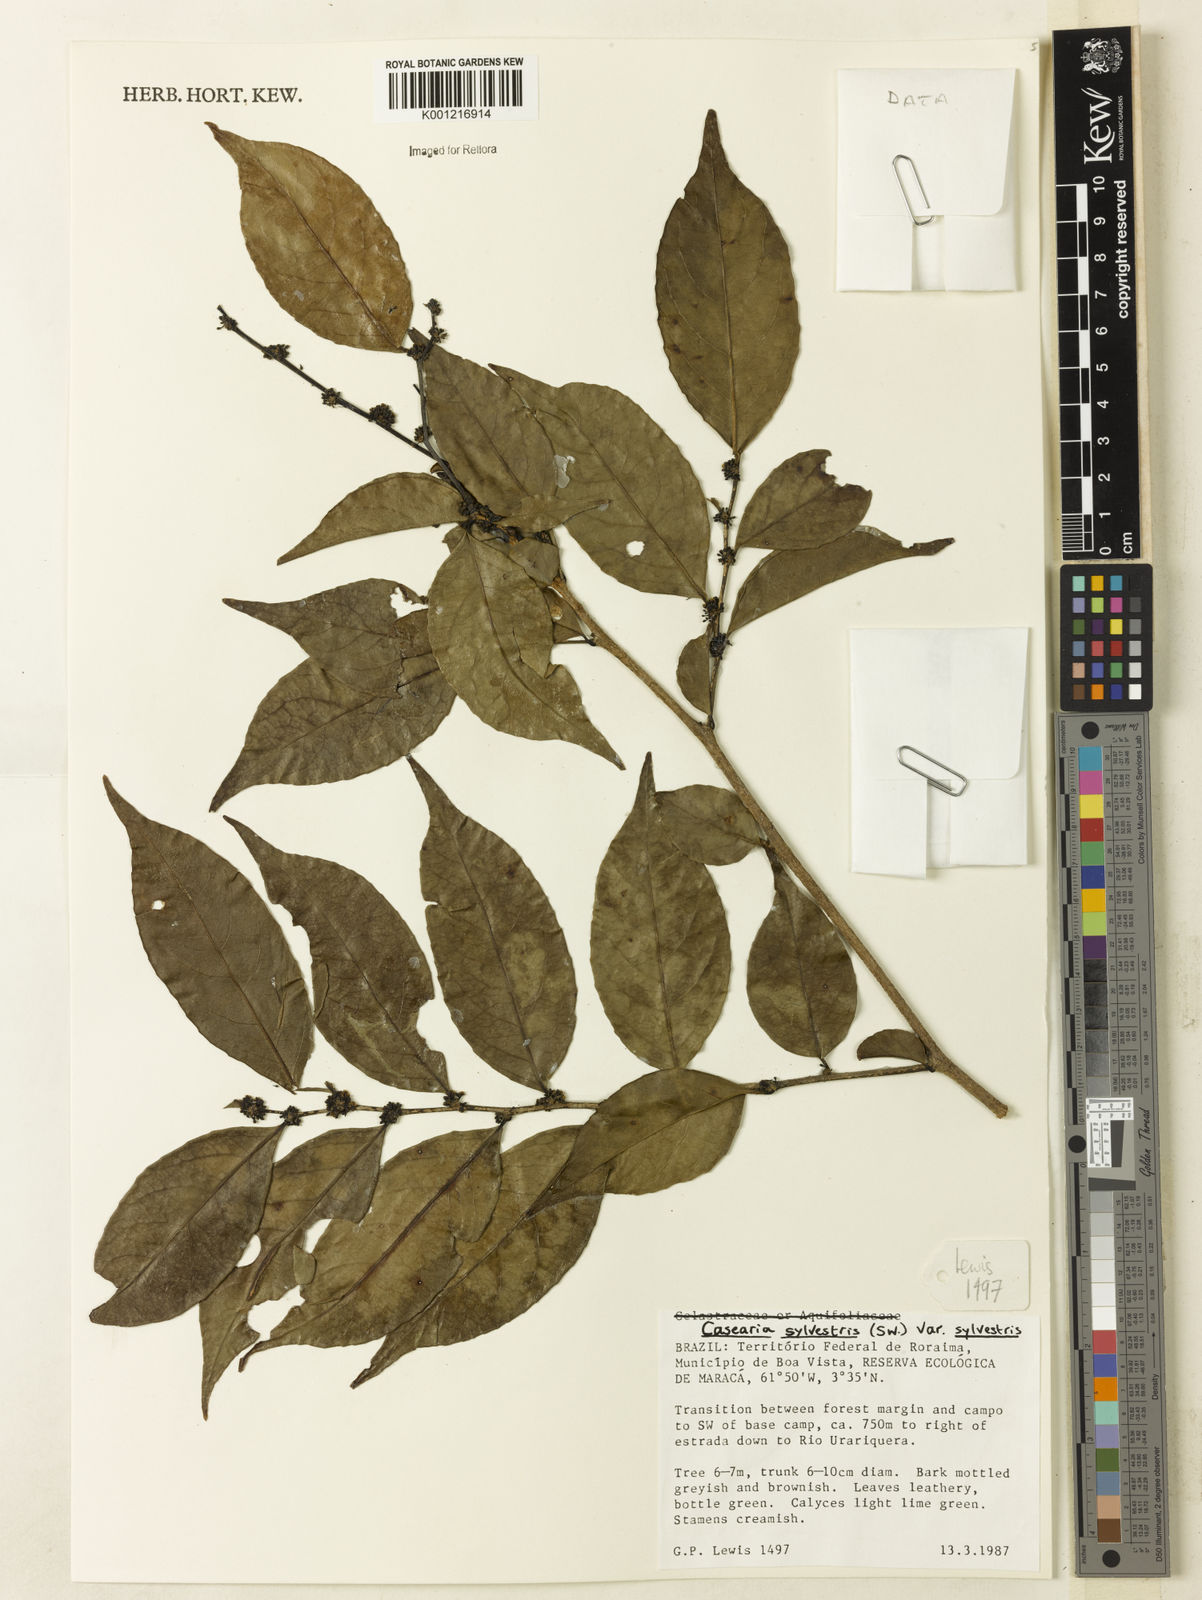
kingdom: Plantae
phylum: Tracheophyta
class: Magnoliopsida
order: Malpighiales
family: Salicaceae
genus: Casearia
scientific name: Casearia sylvestris
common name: Wild sage
